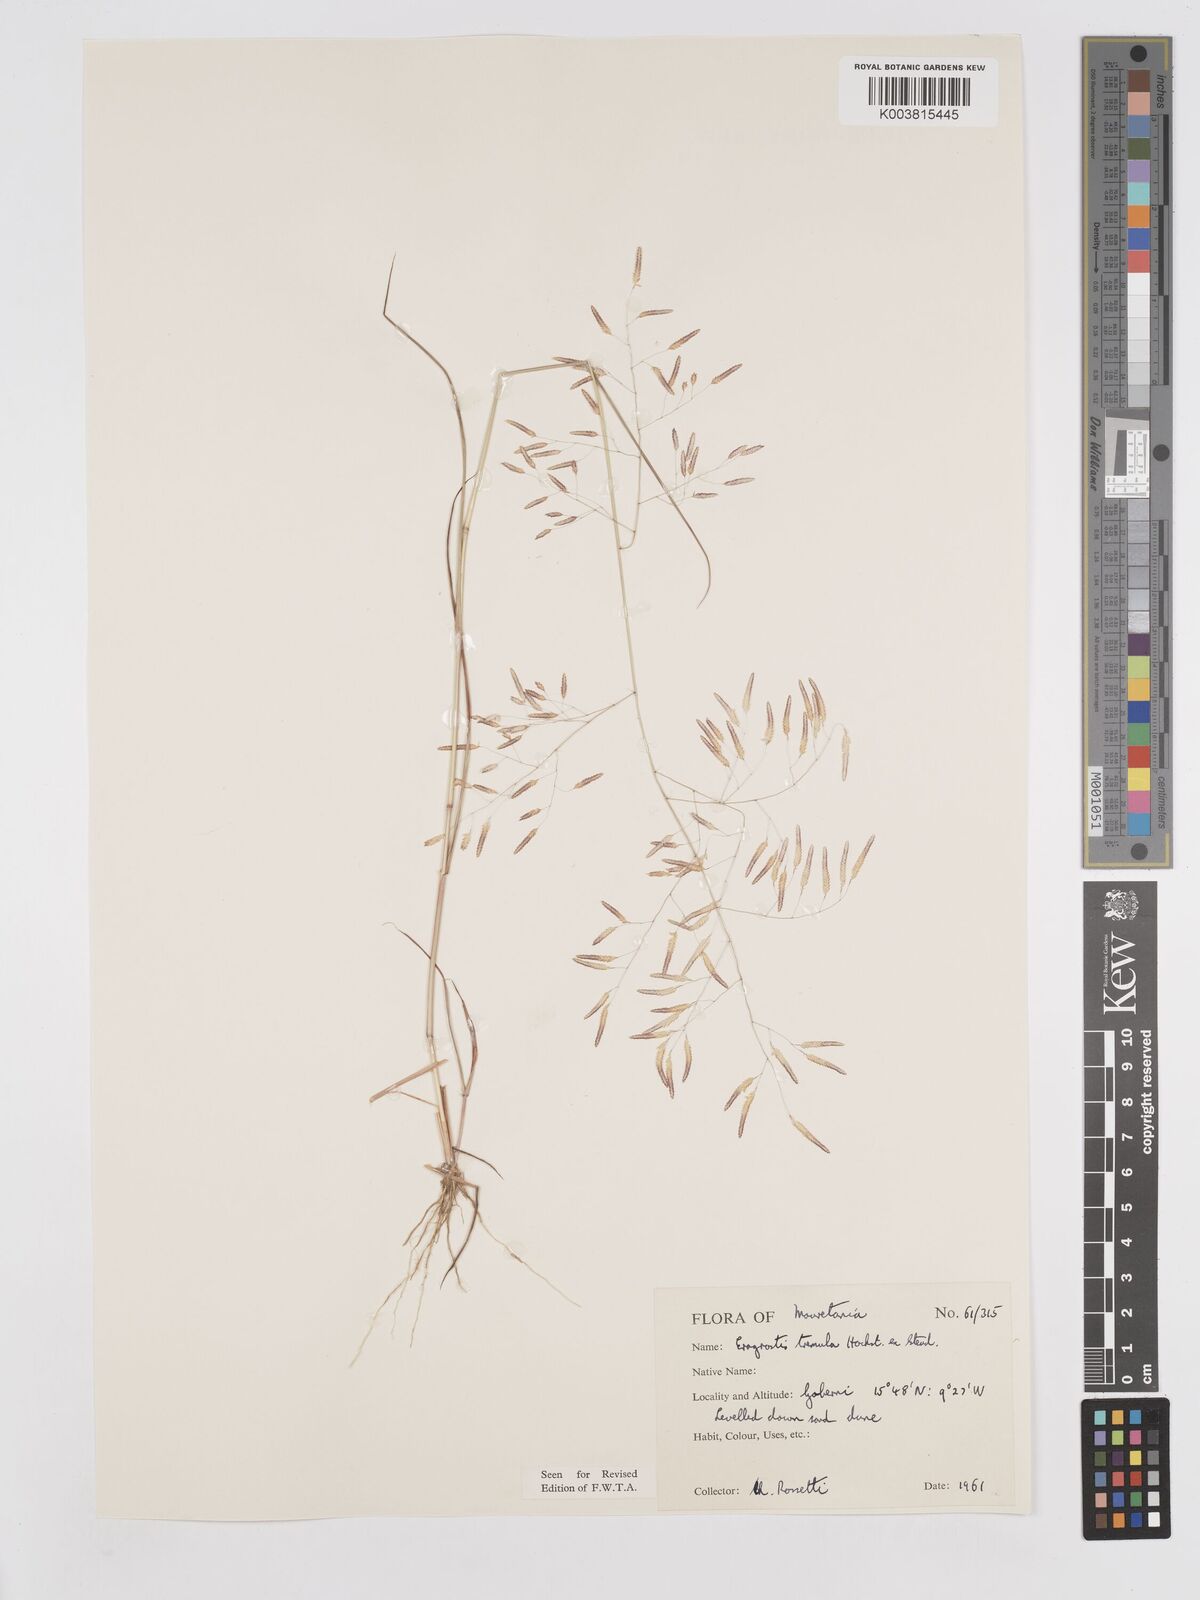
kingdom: Plantae
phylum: Tracheophyta
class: Liliopsida
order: Poales
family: Poaceae
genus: Eragrostis
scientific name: Eragrostis tremula
